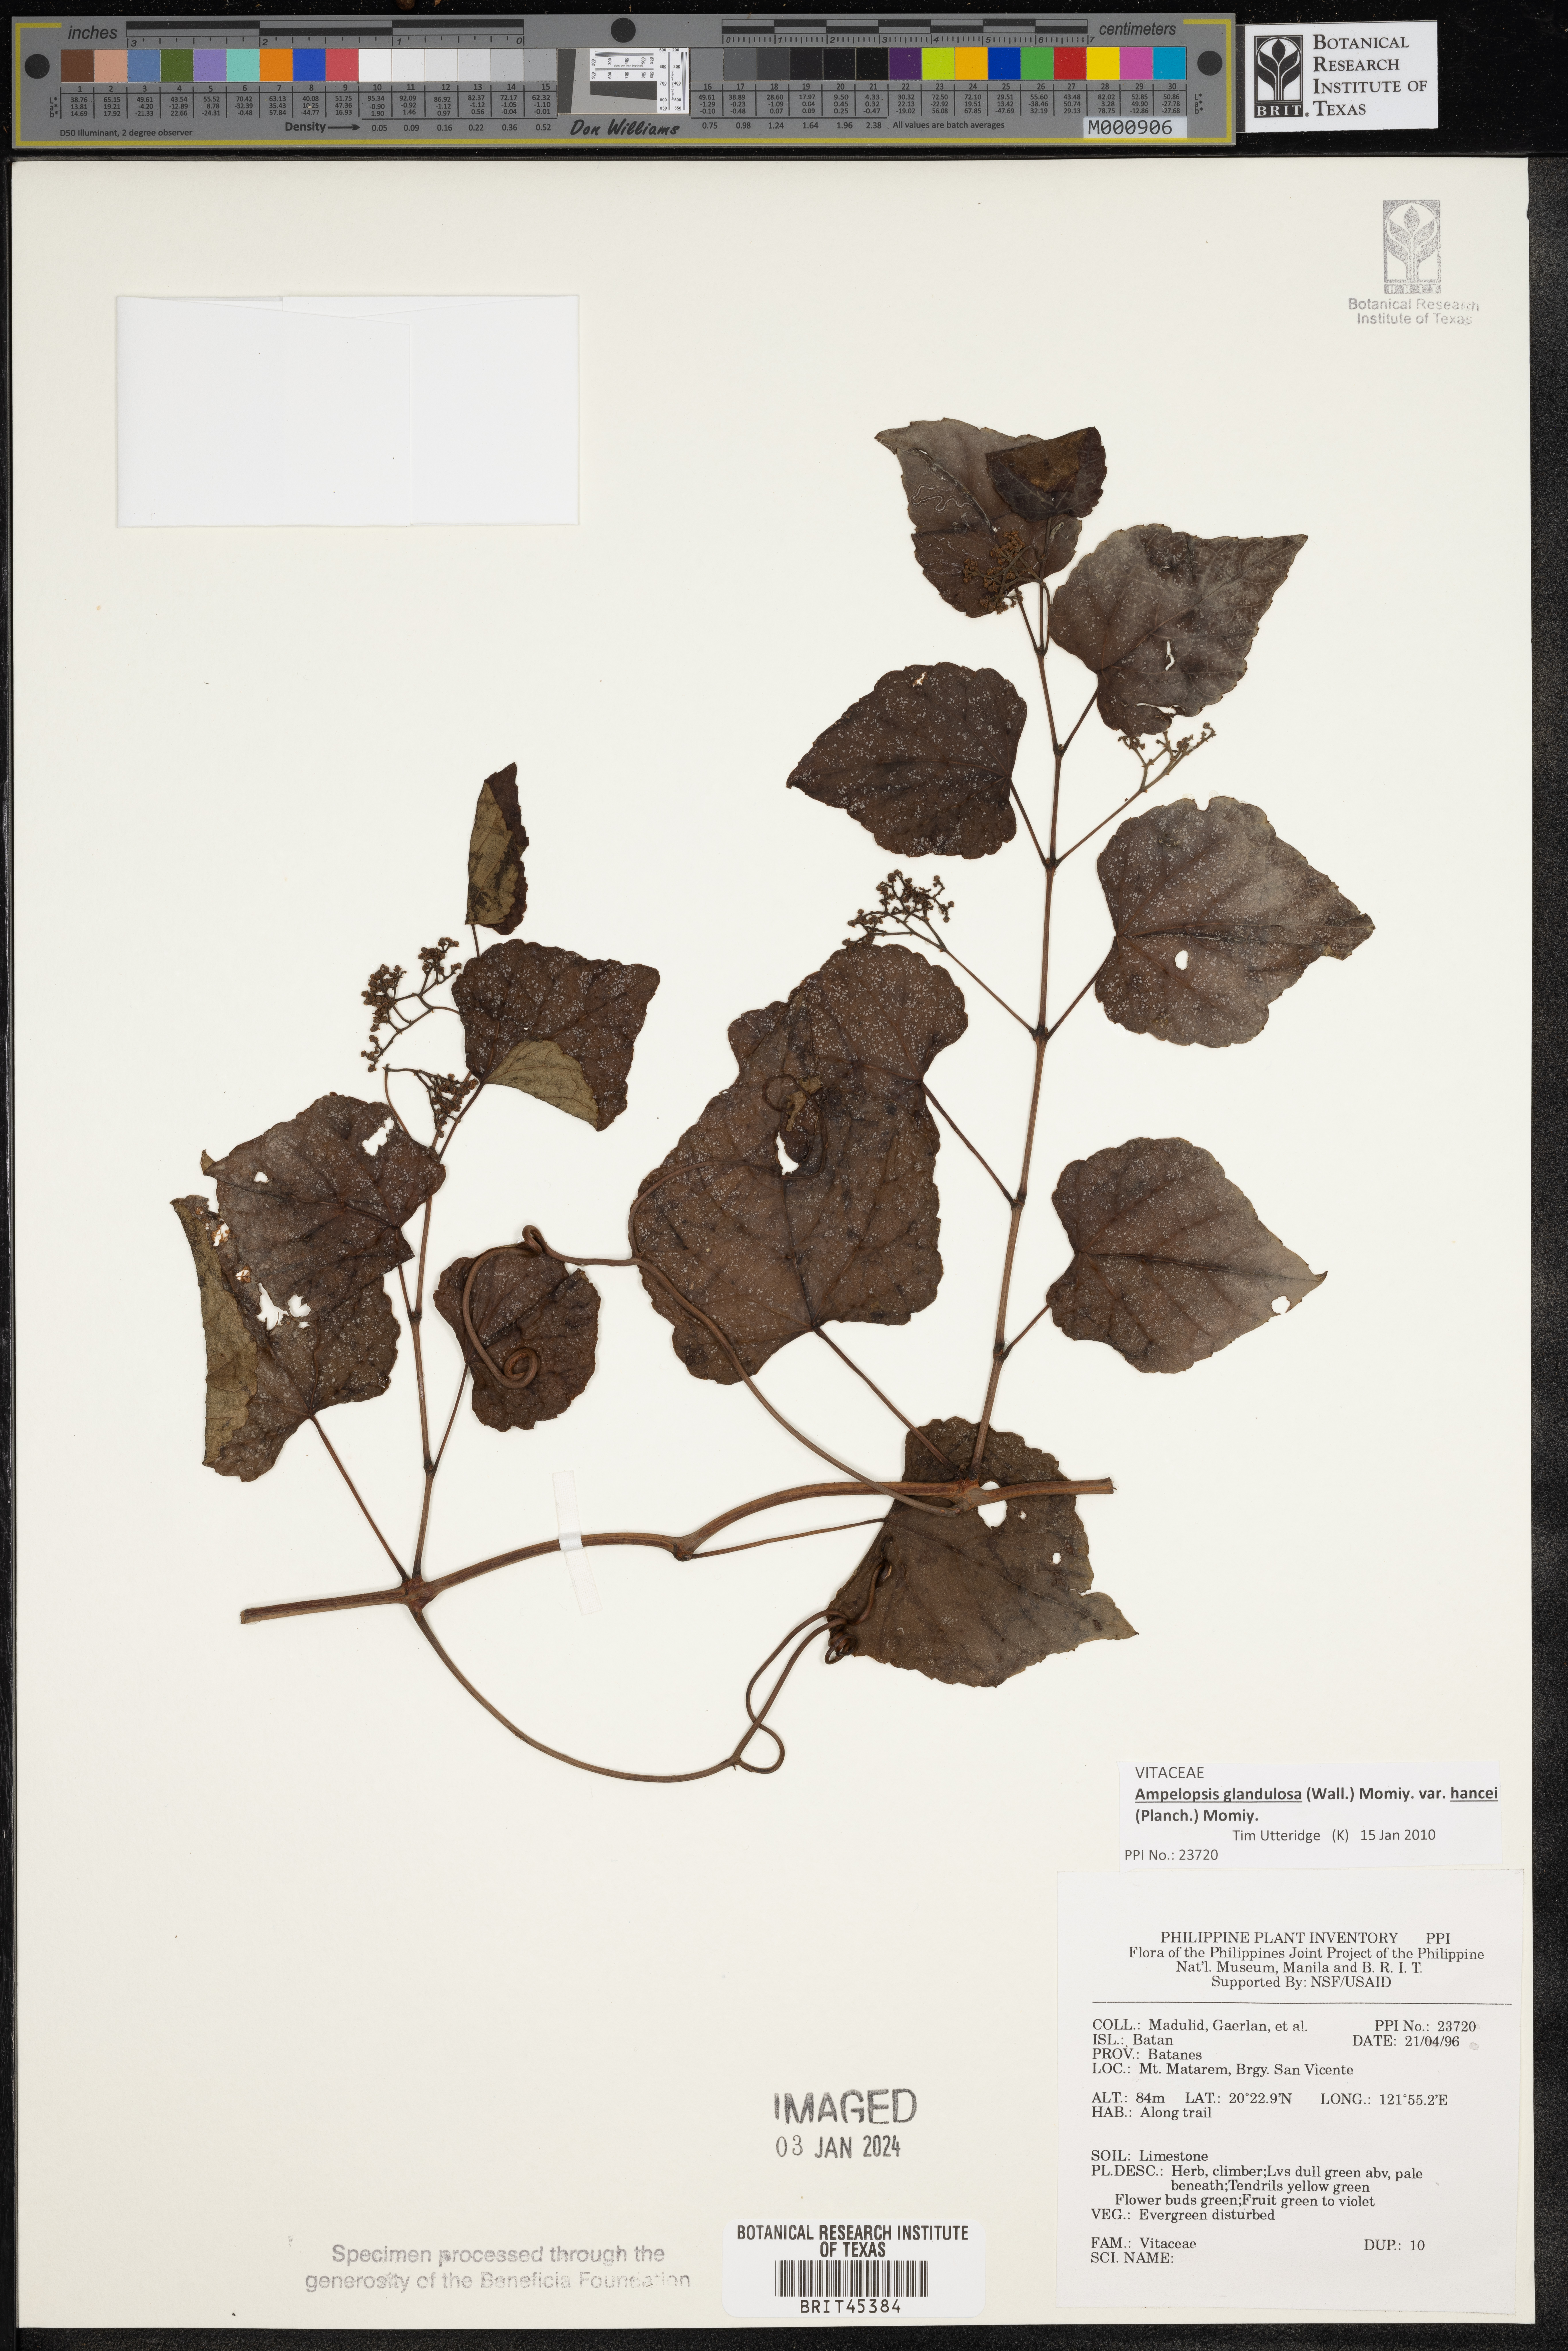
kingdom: Plantae
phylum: Tracheophyta
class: Magnoliopsida
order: Vitales
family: Vitaceae
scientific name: Vitaceae
